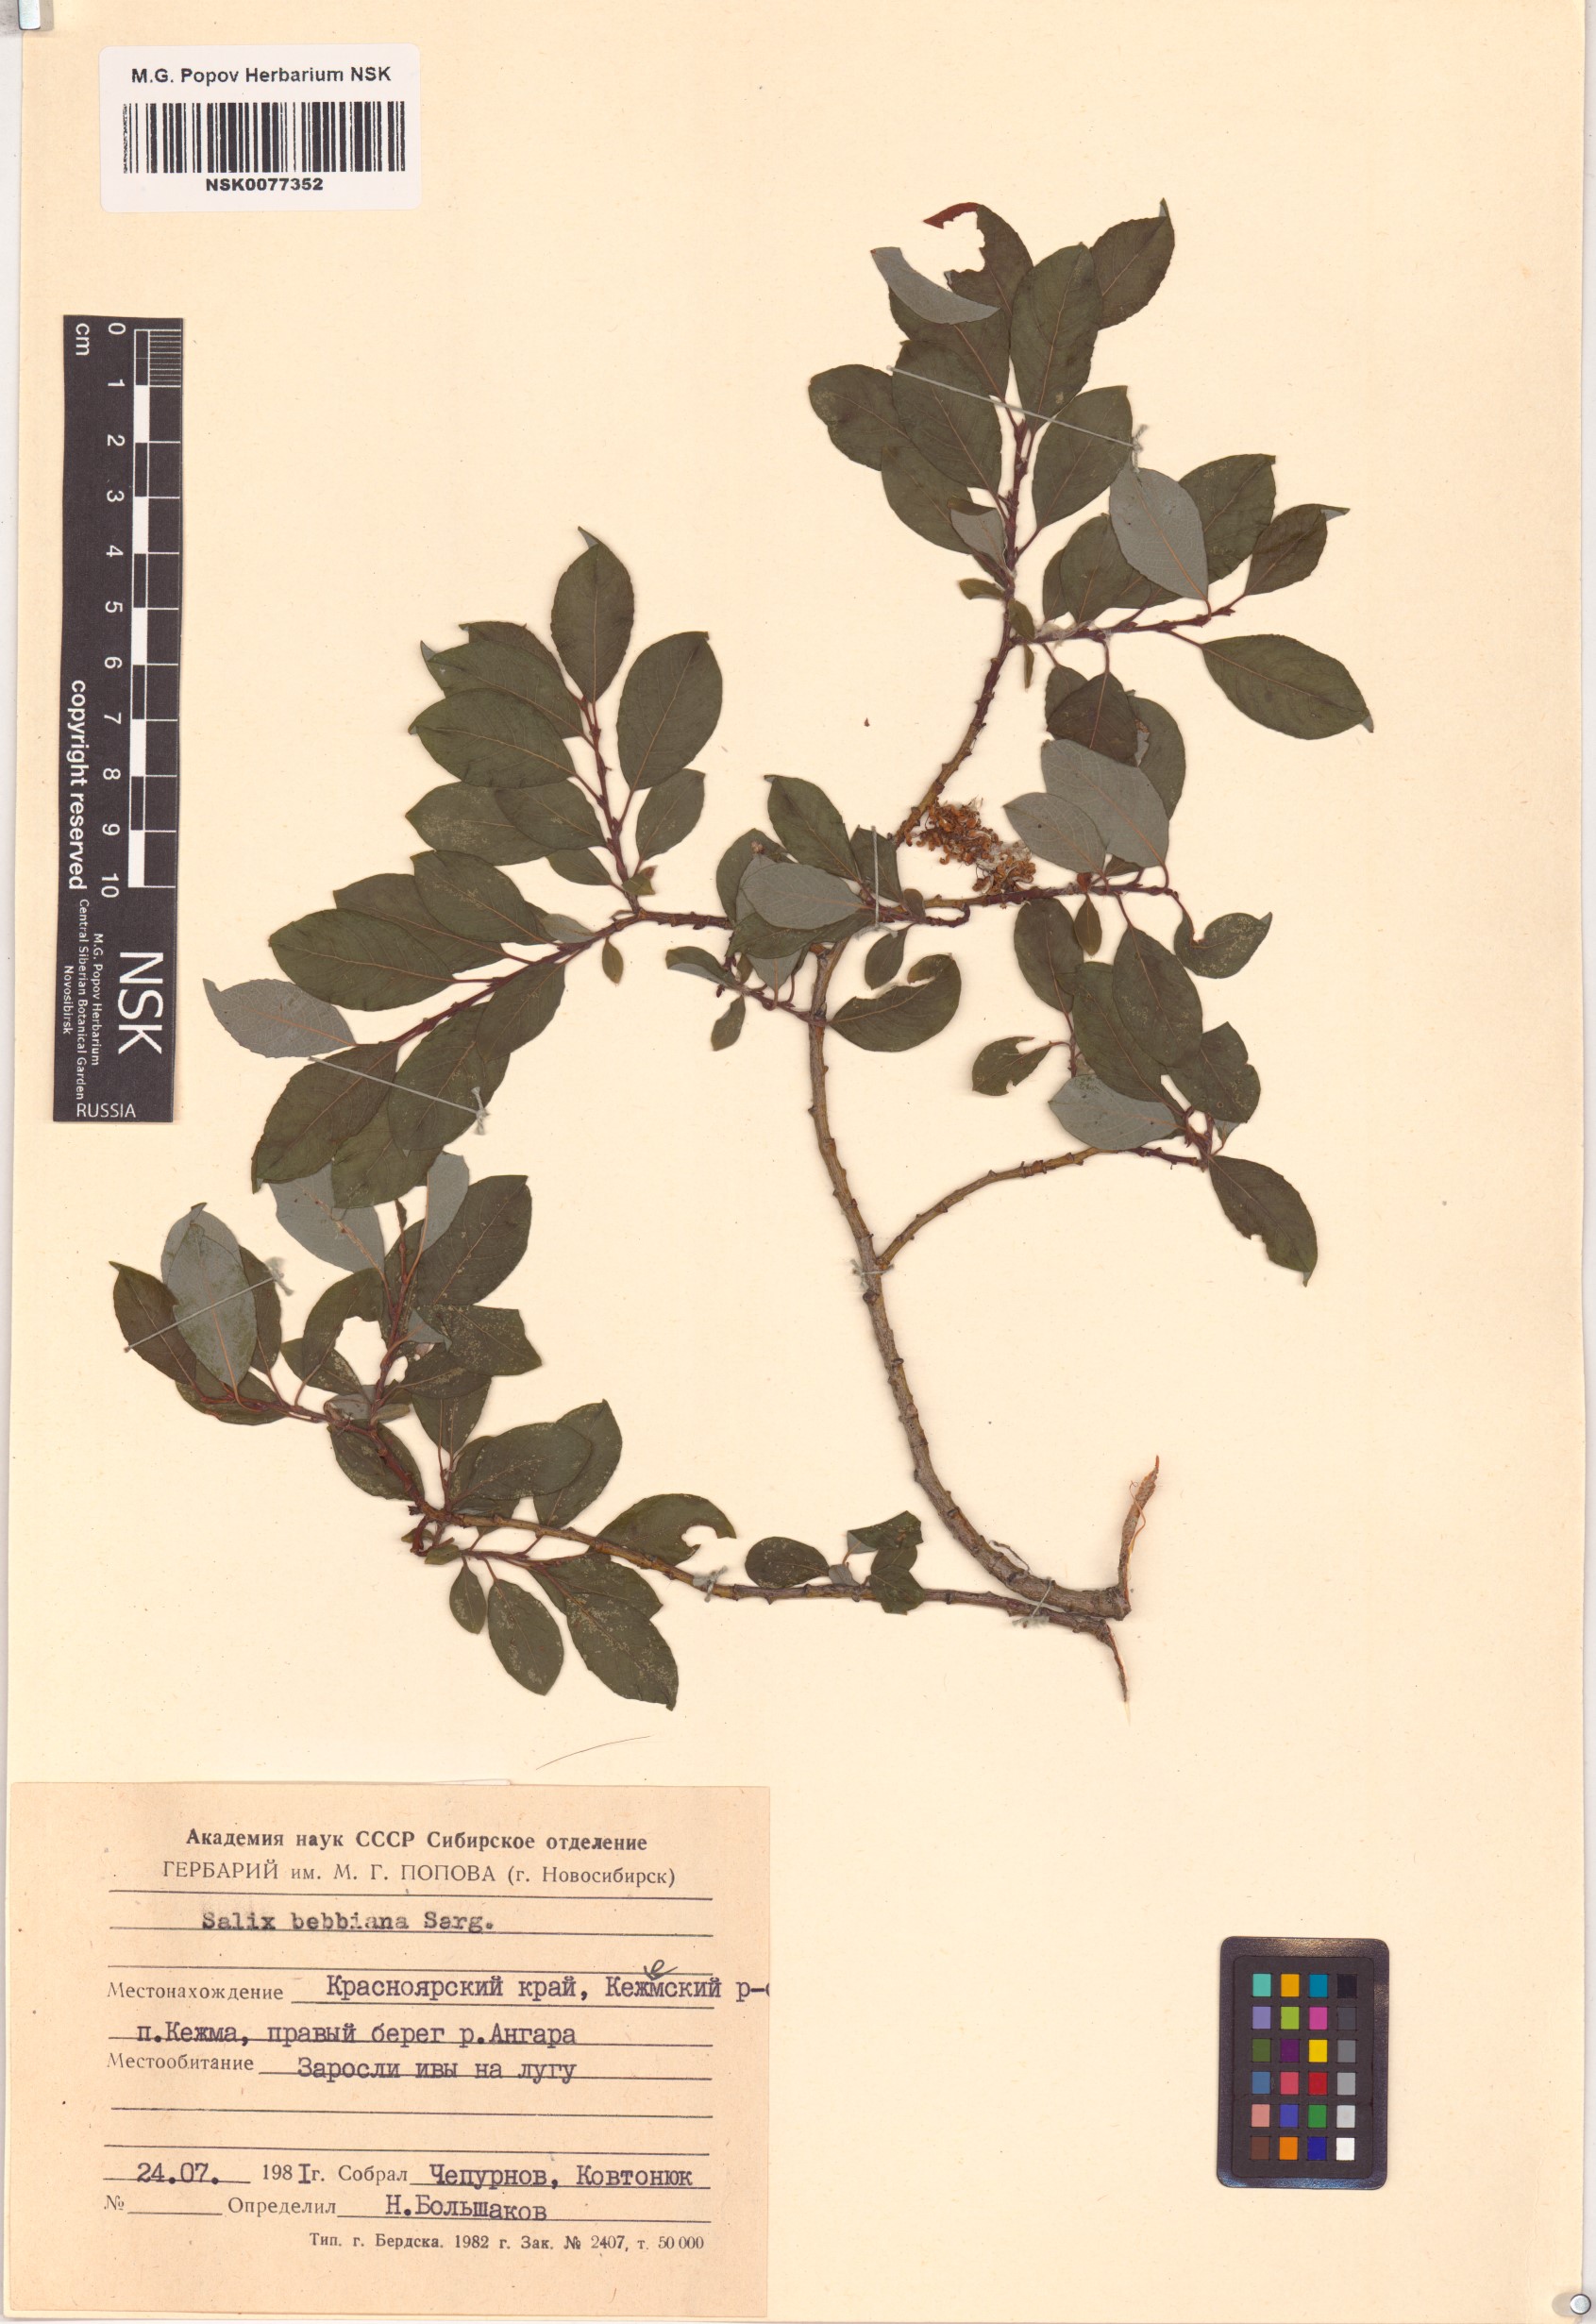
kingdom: Plantae
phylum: Tracheophyta
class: Magnoliopsida
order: Malpighiales
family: Salicaceae
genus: Salix
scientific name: Salix bebbiana
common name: Bebb's willow
